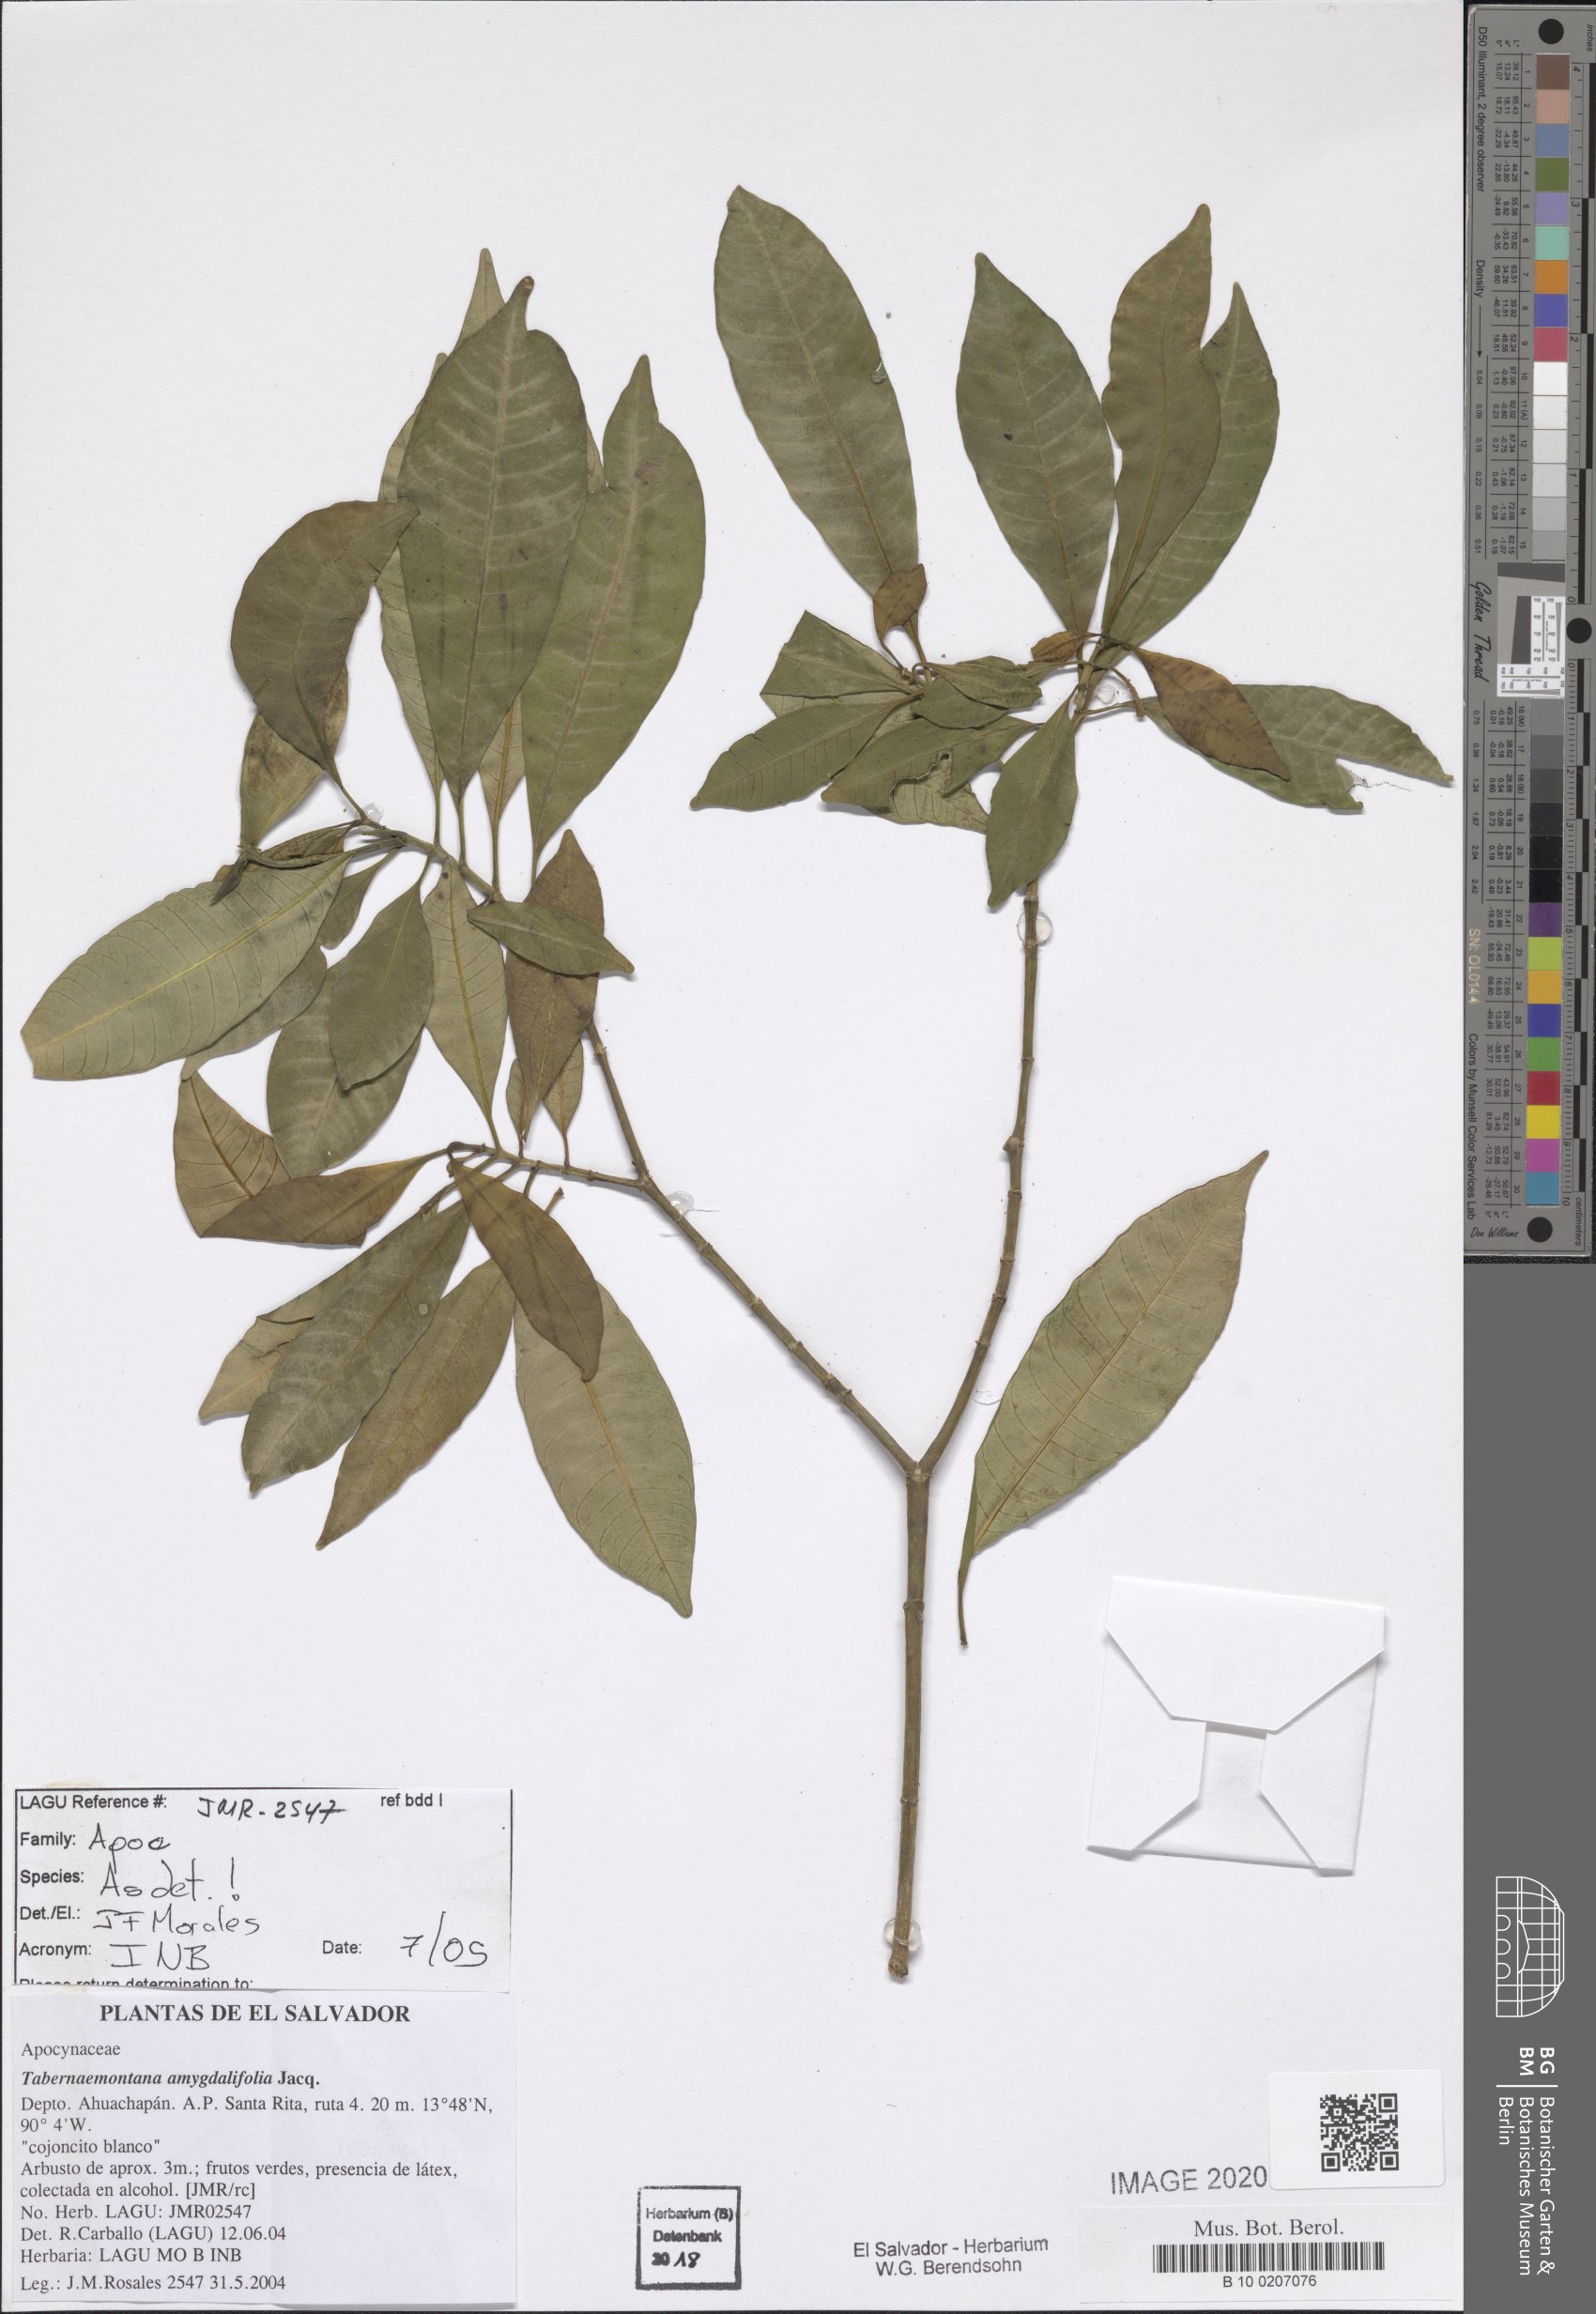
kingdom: Plantae
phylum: Tracheophyta
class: Magnoliopsida
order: Gentianales
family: Apocynaceae
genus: Tabernaemontana
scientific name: Tabernaemontana amygdalifolia
